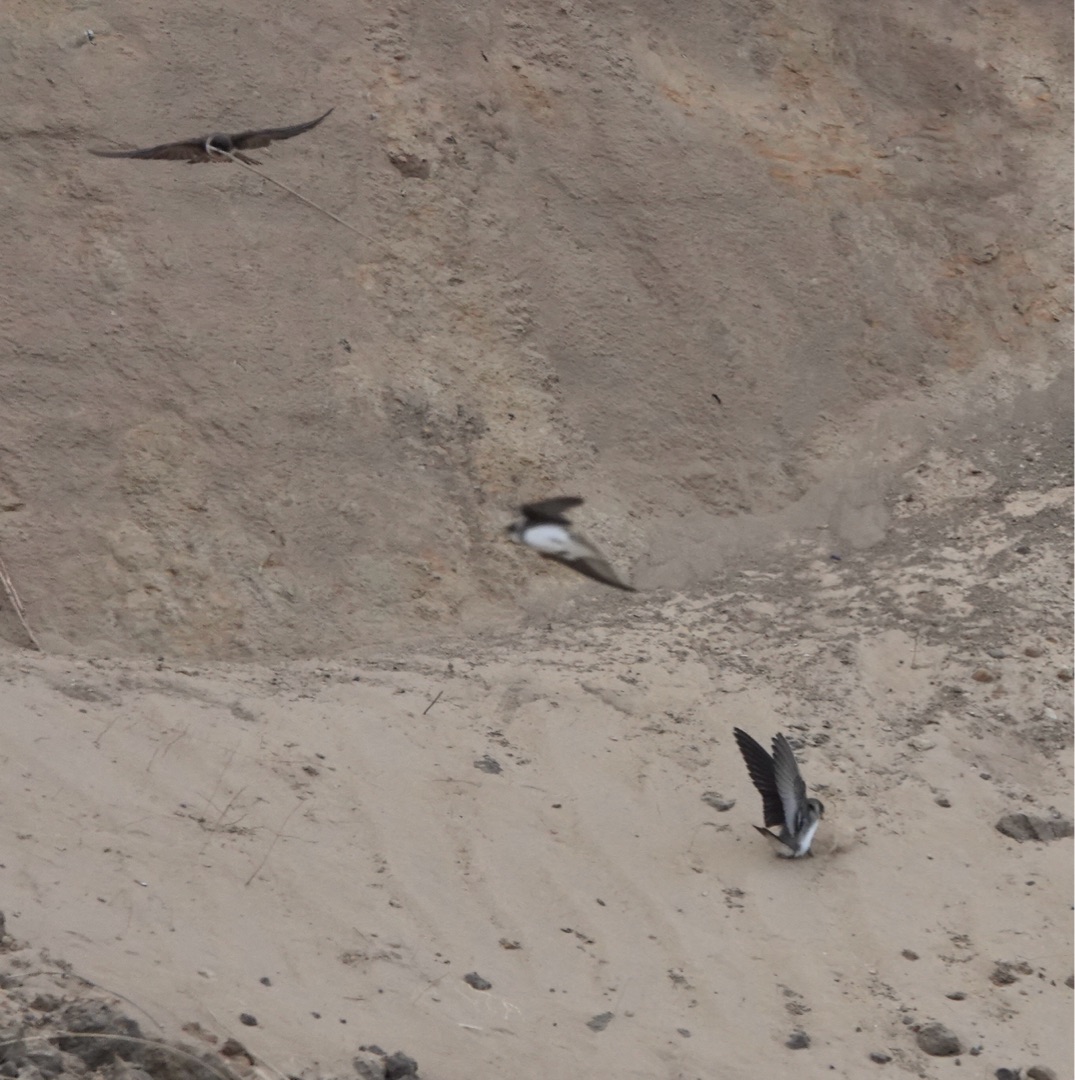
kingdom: Animalia
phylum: Chordata
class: Aves
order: Passeriformes
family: Hirundinidae
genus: Riparia
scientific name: Riparia riparia
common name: Digesvale
